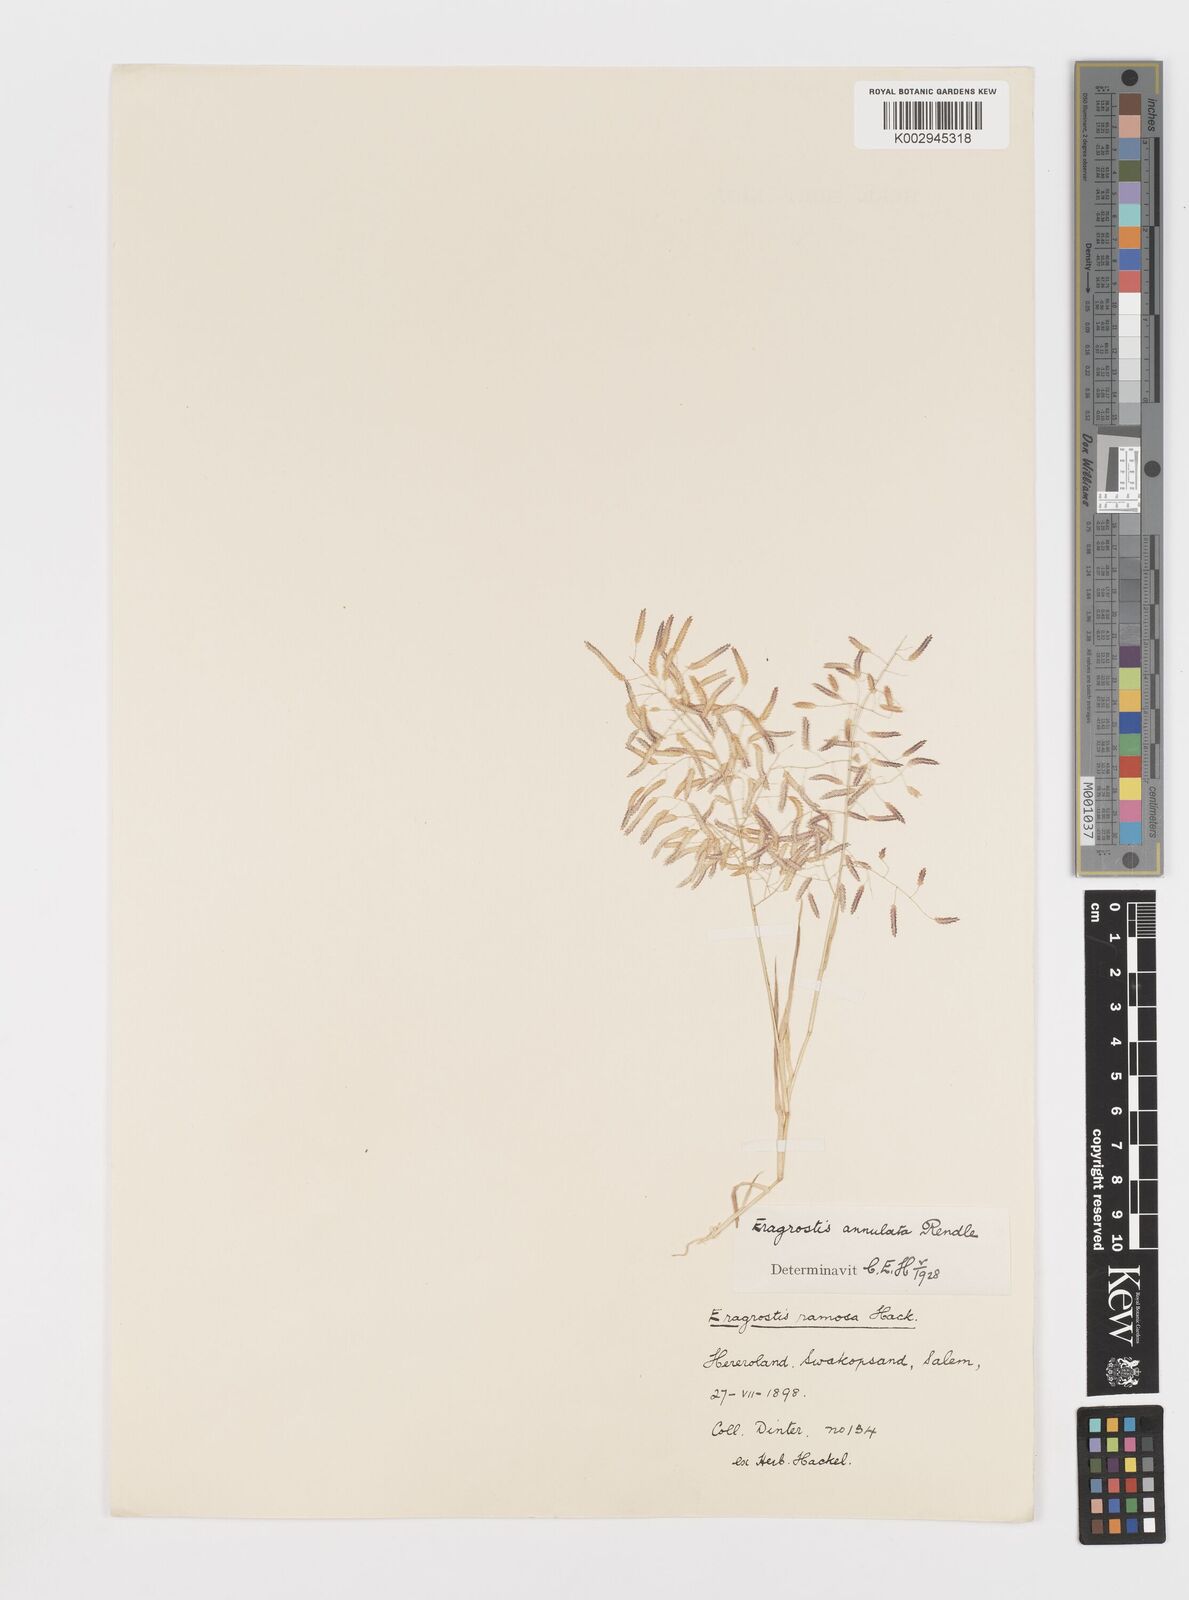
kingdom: Plantae
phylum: Tracheophyta
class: Liliopsida
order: Poales
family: Poaceae
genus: Eragrostis
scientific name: Eragrostis annulata
